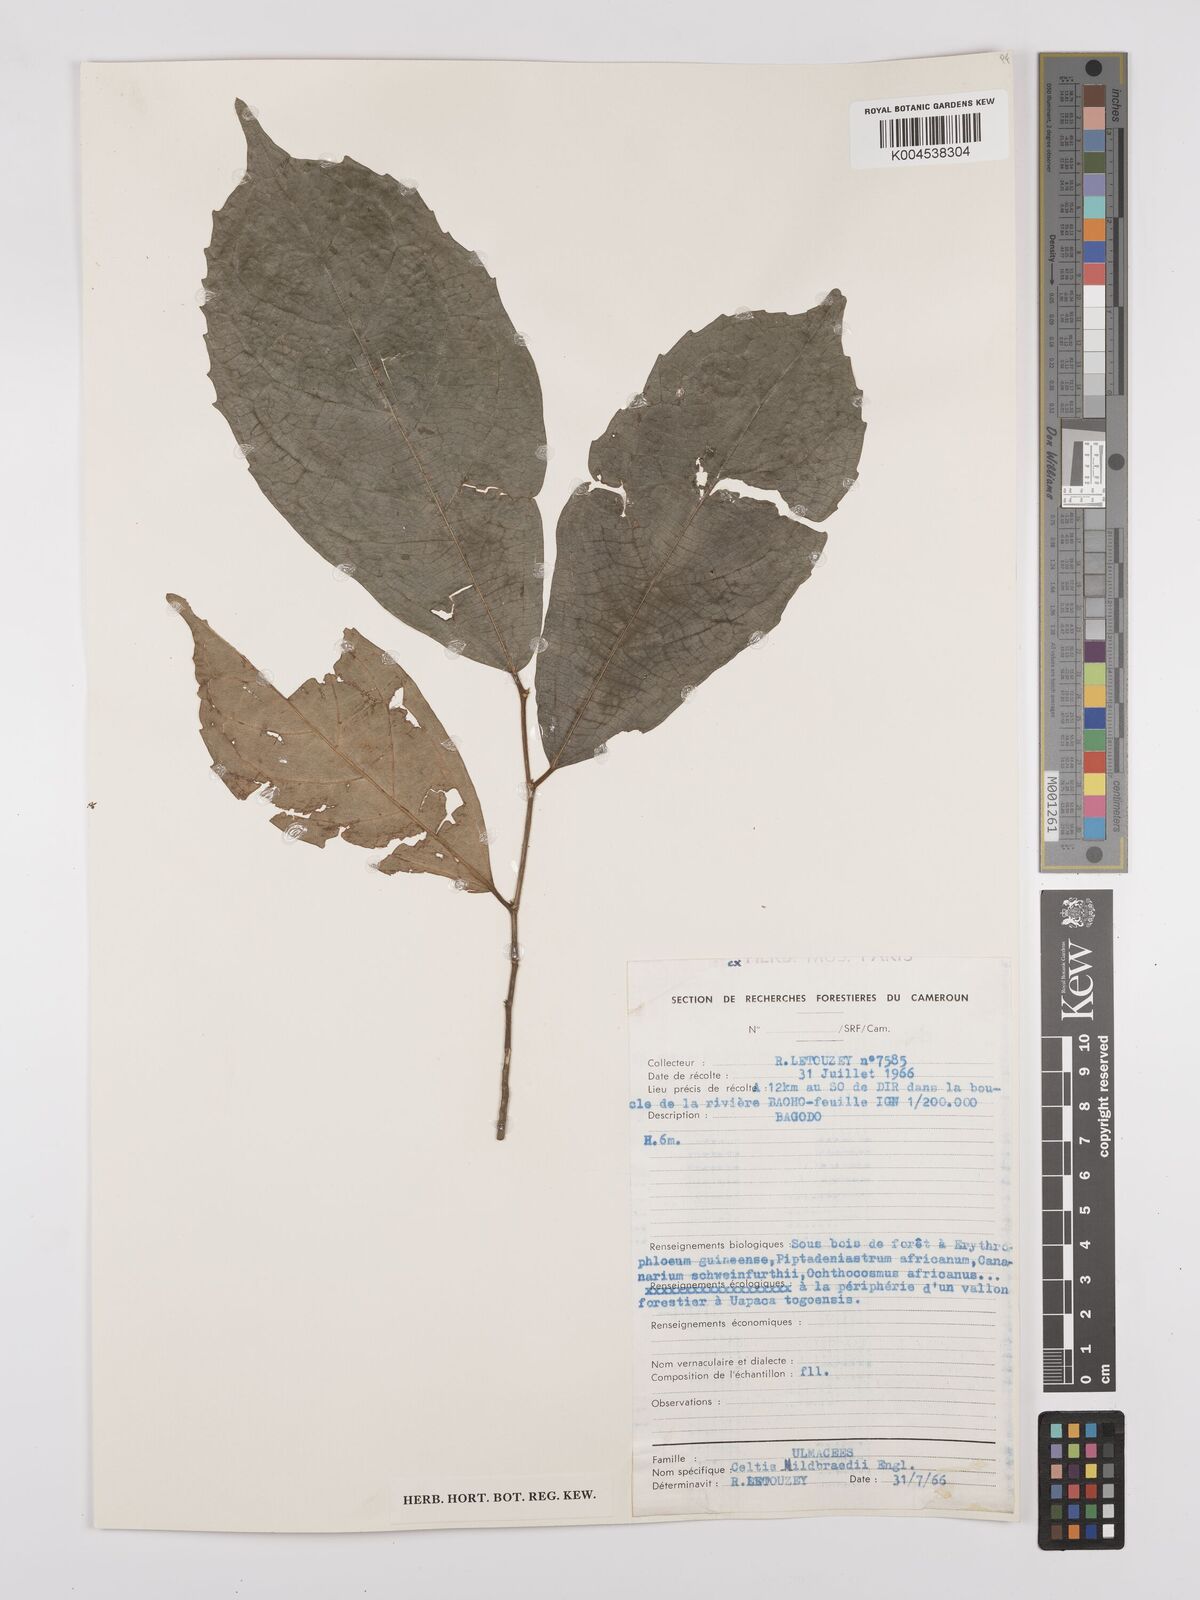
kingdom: Plantae
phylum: Tracheophyta
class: Magnoliopsida
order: Rosales
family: Cannabaceae
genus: Celtis
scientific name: Celtis mildbraedii
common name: Red-fruited stinkwood
